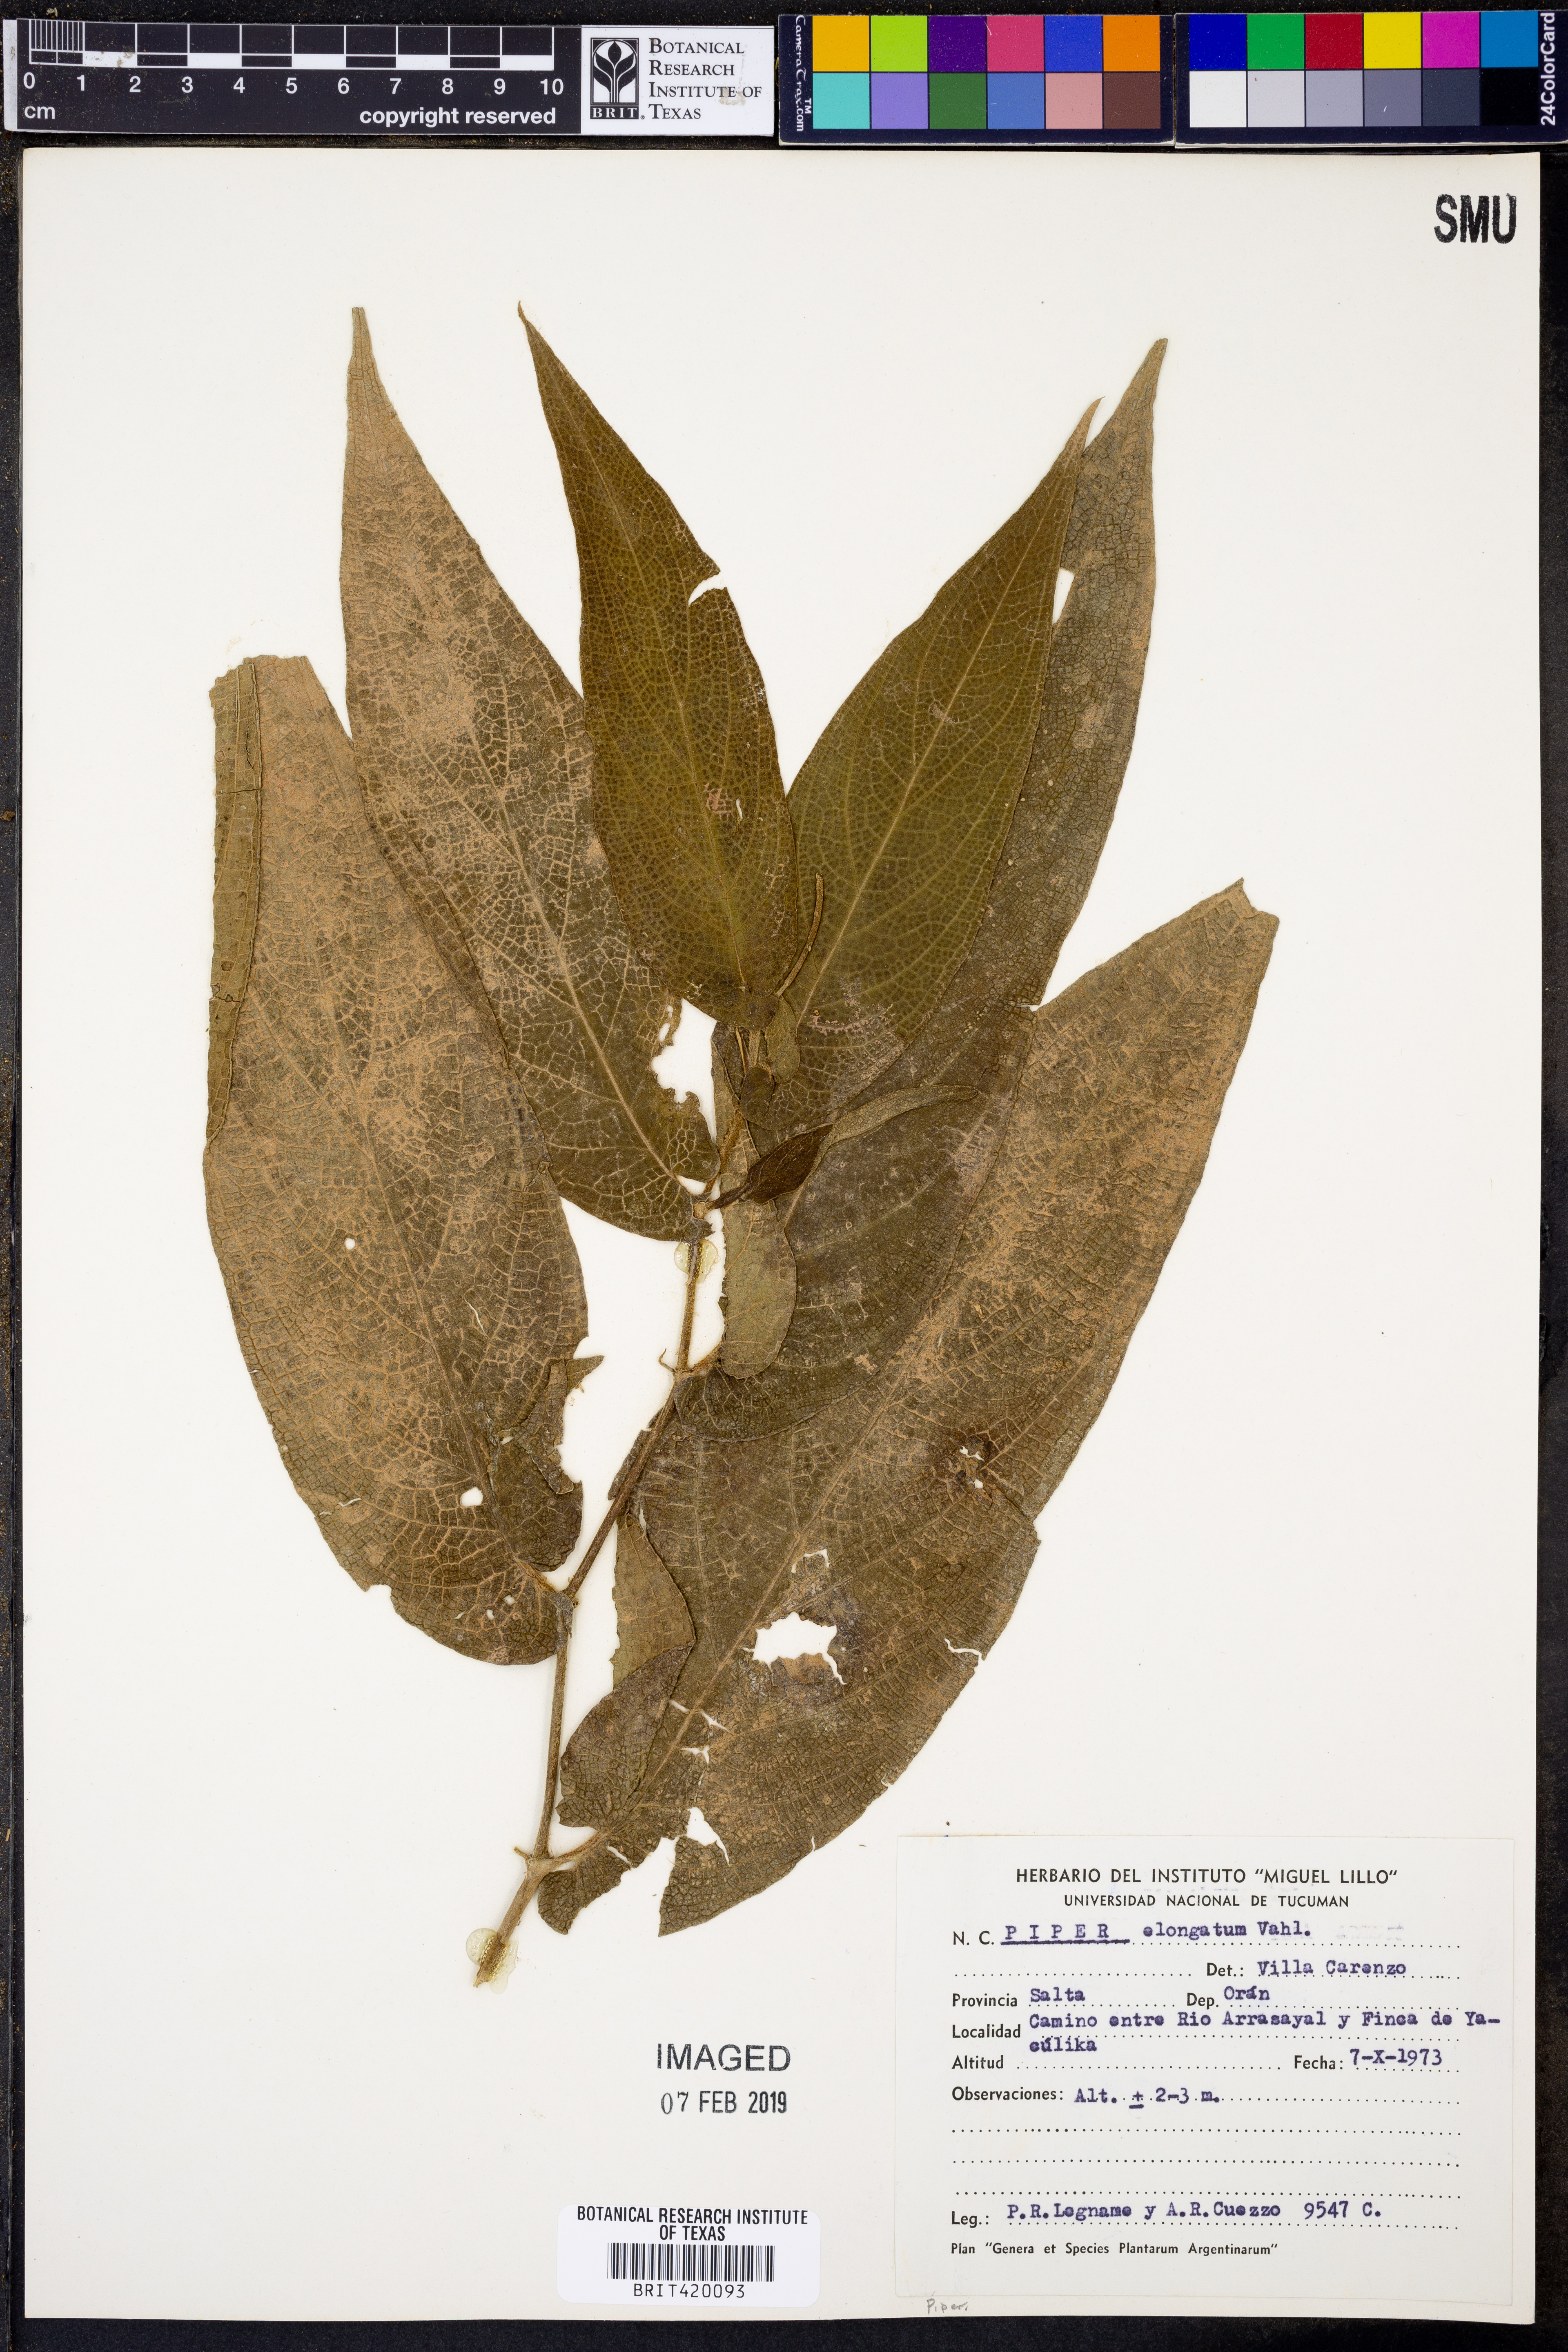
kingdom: Plantae
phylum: Tracheophyta
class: Magnoliopsida
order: Piperales
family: Piperaceae
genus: Piper
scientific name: Piper elongatum
